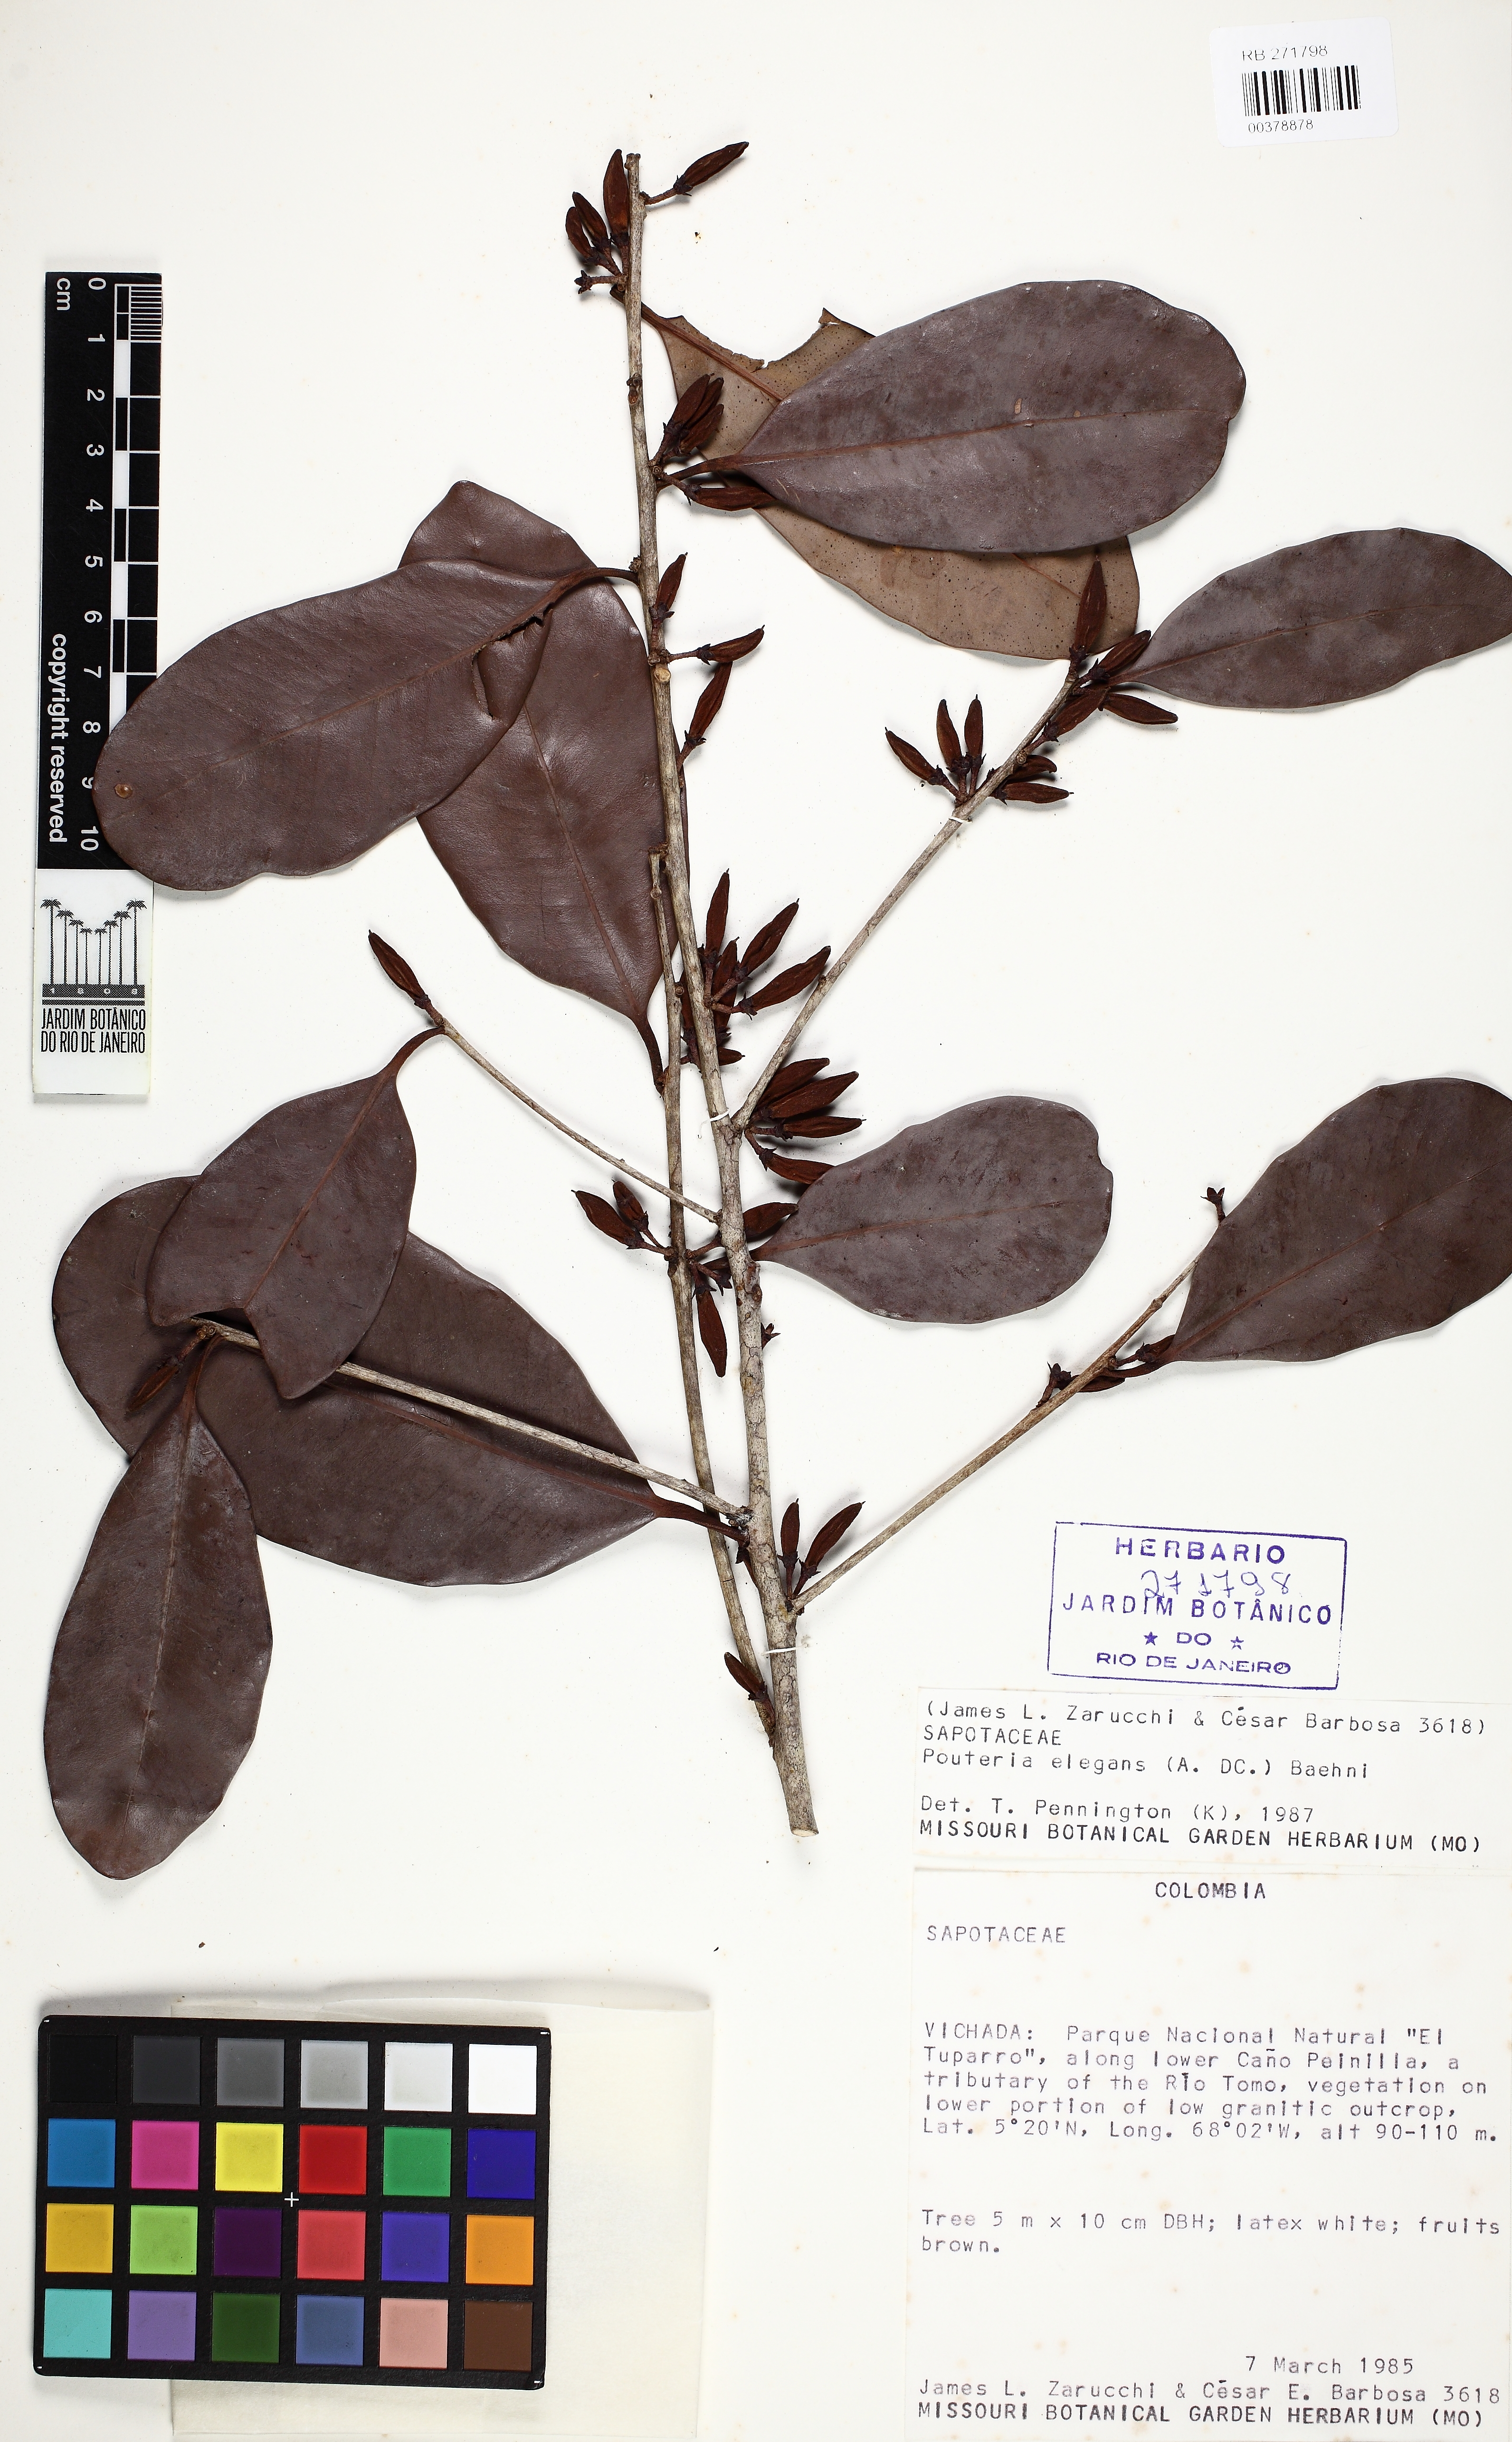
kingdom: Plantae
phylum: Tracheophyta
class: Magnoliopsida
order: Ericales
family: Sapotaceae
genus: Pouteria
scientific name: Pouteria elegans
